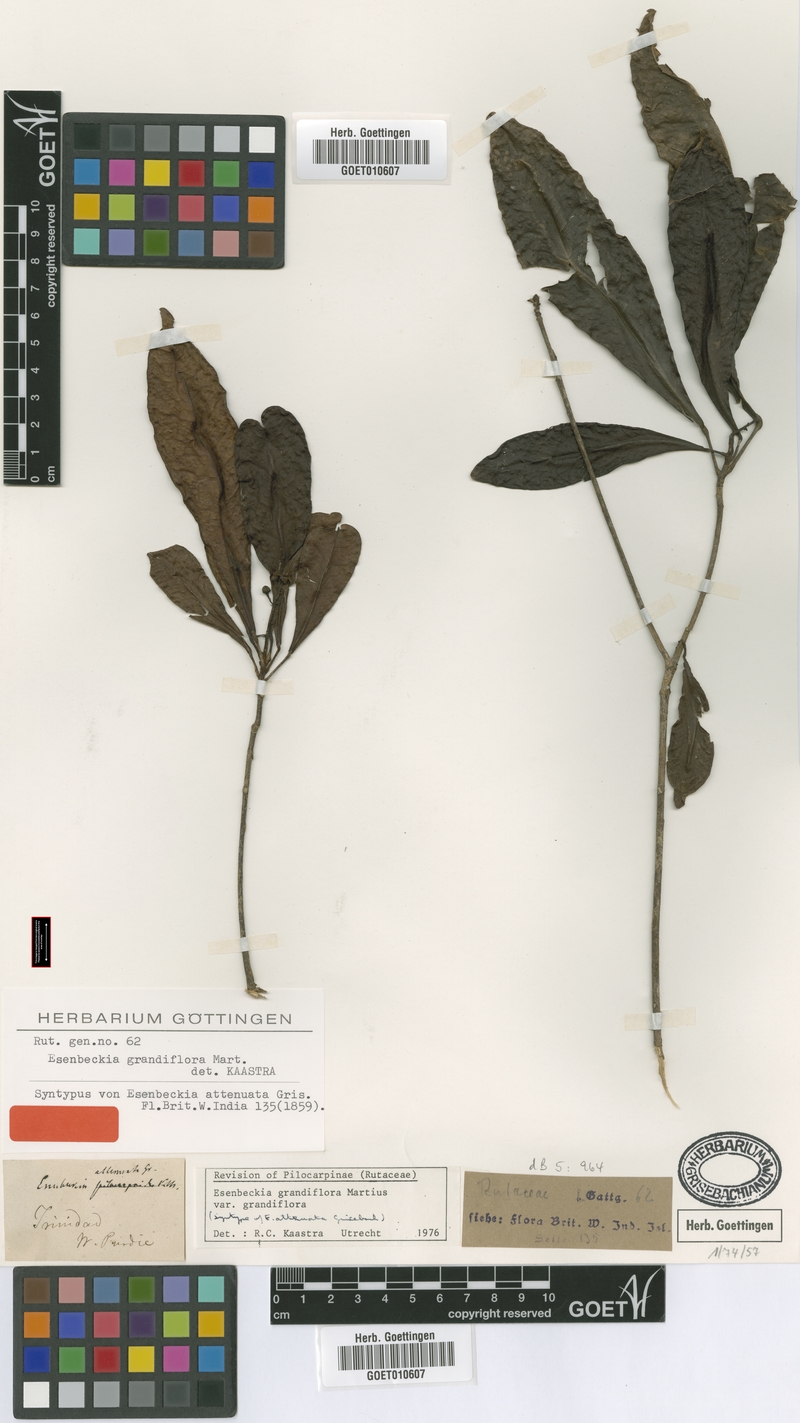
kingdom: Plantae
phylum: Tracheophyta
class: Magnoliopsida
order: Sapindales
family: Rutaceae
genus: Esenbeckia
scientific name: Esenbeckia grandiflora
